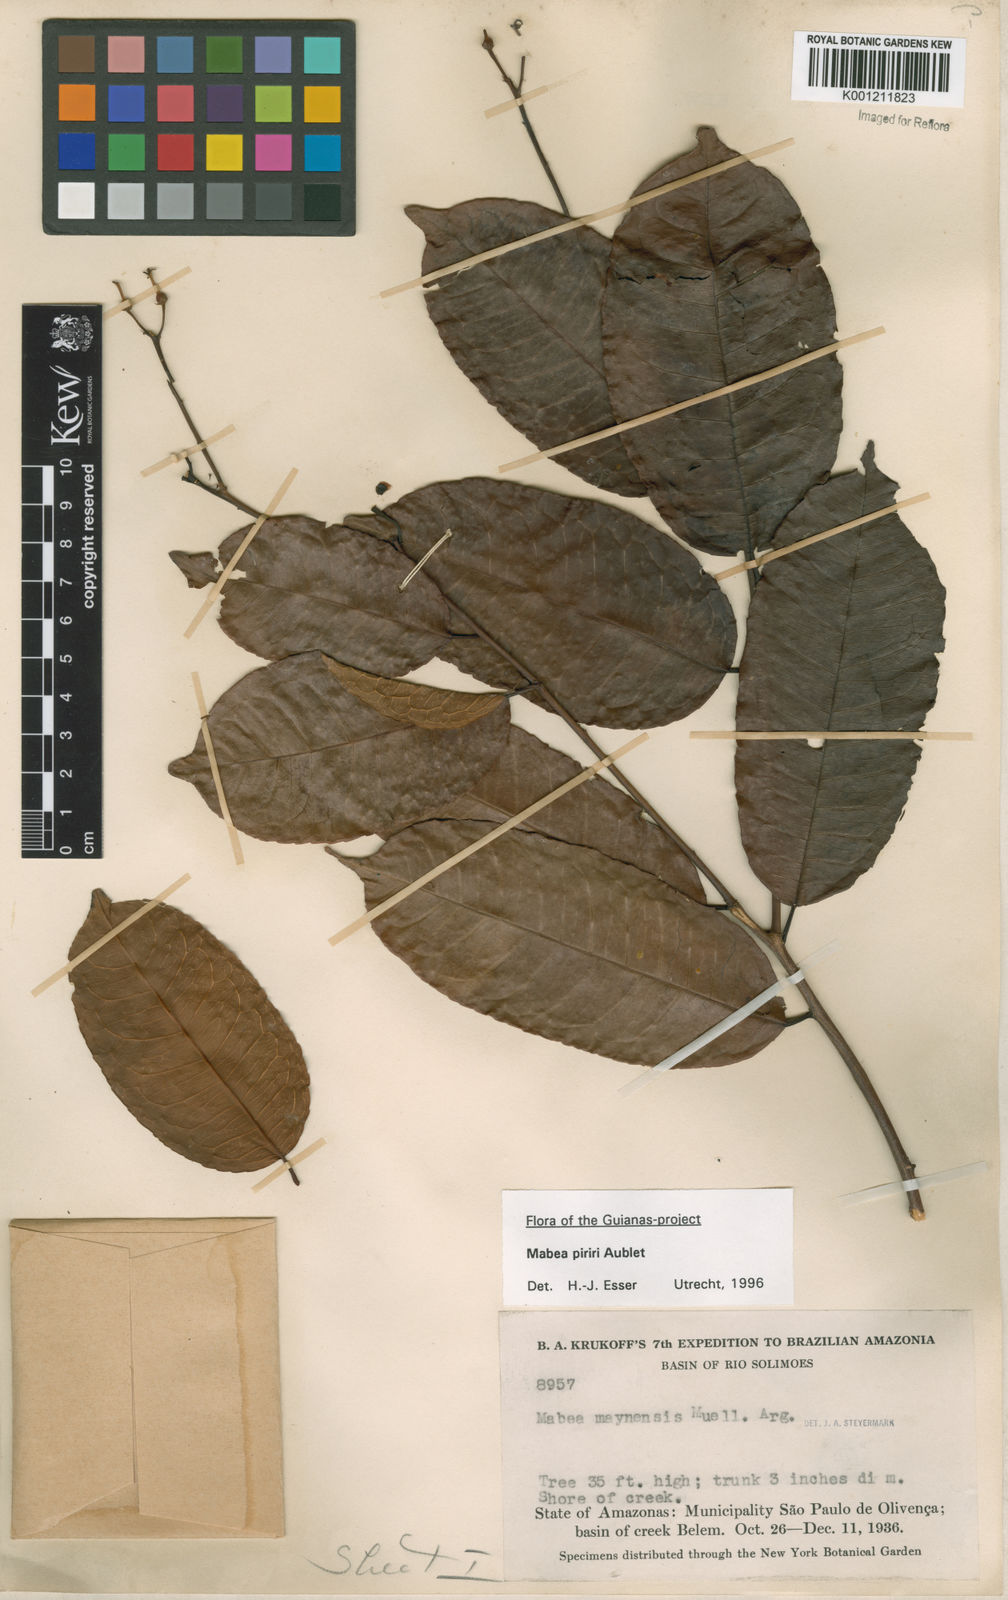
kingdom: Plantae
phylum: Tracheophyta
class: Magnoliopsida
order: Malpighiales
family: Euphorbiaceae
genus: Mabea
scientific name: Mabea piriri
